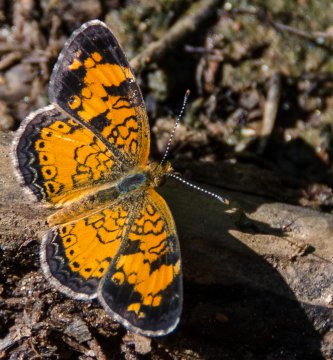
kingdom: Animalia
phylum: Arthropoda
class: Insecta
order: Lepidoptera
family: Nymphalidae
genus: Phyciodes
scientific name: Phyciodes tharos
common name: Pearl Crescent
